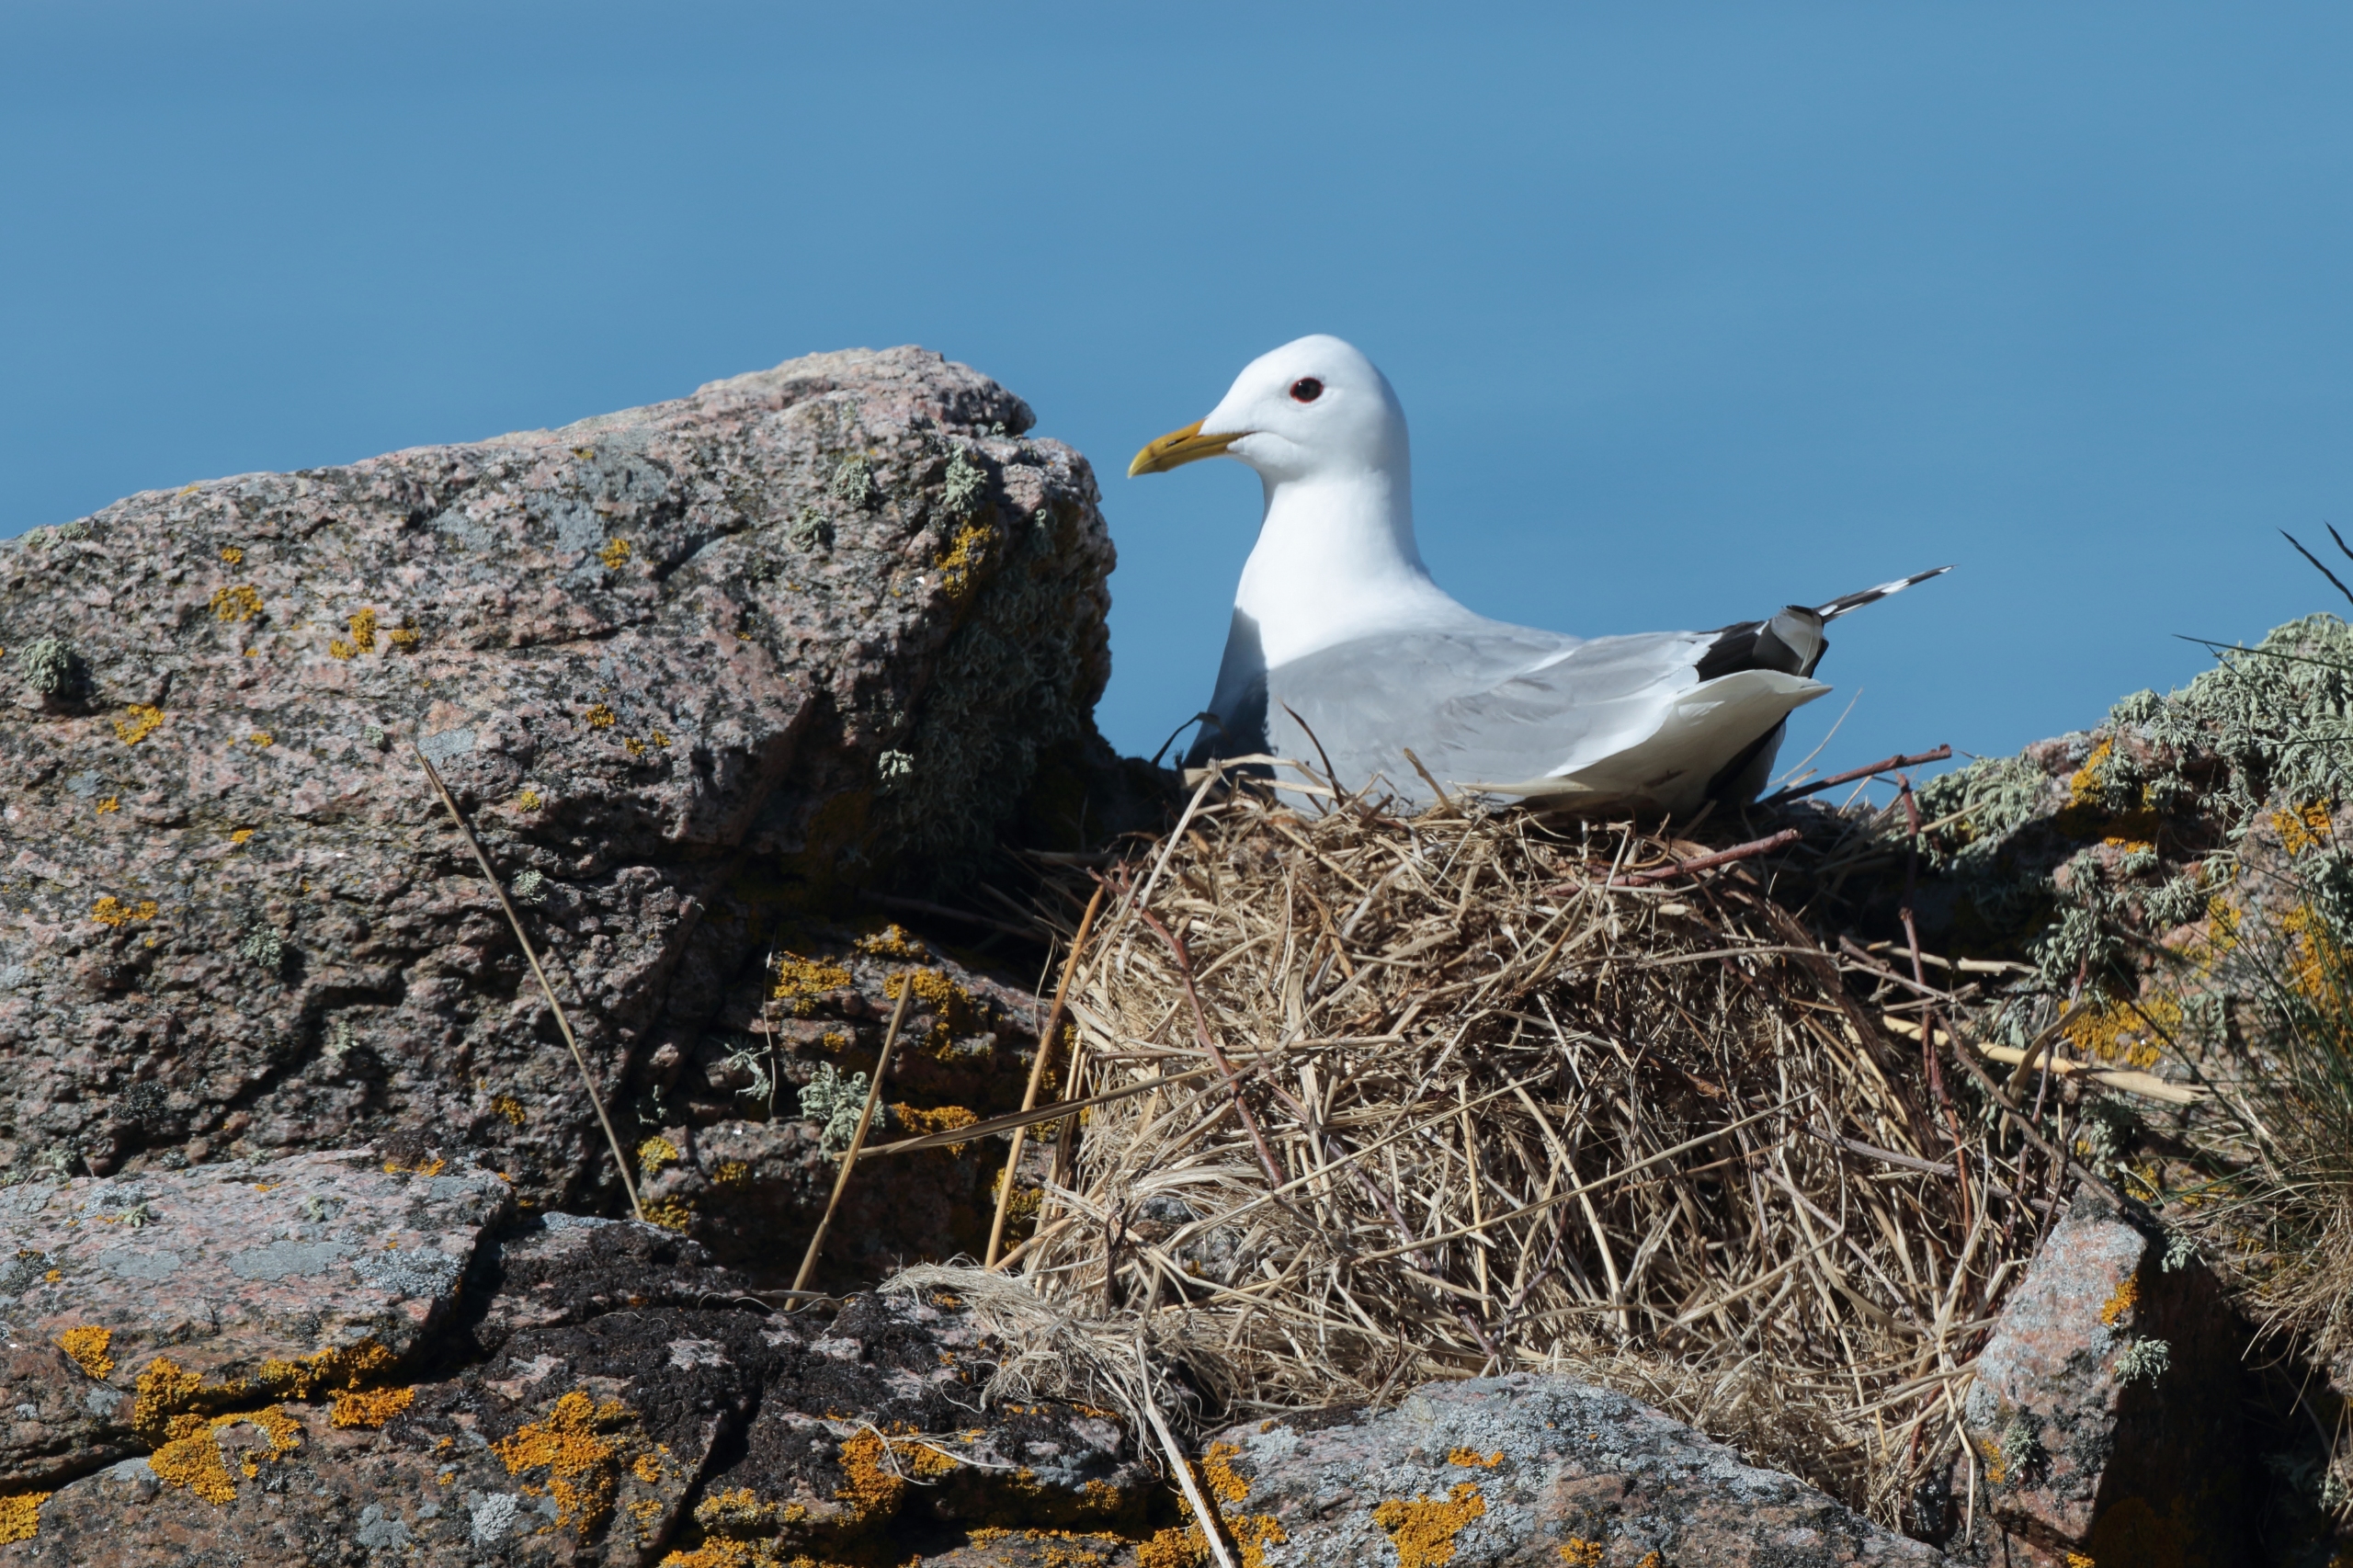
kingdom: Animalia
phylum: Chordata
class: Aves
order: Charadriiformes
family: Laridae
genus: Larus
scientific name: Larus canus
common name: Stormmåge
